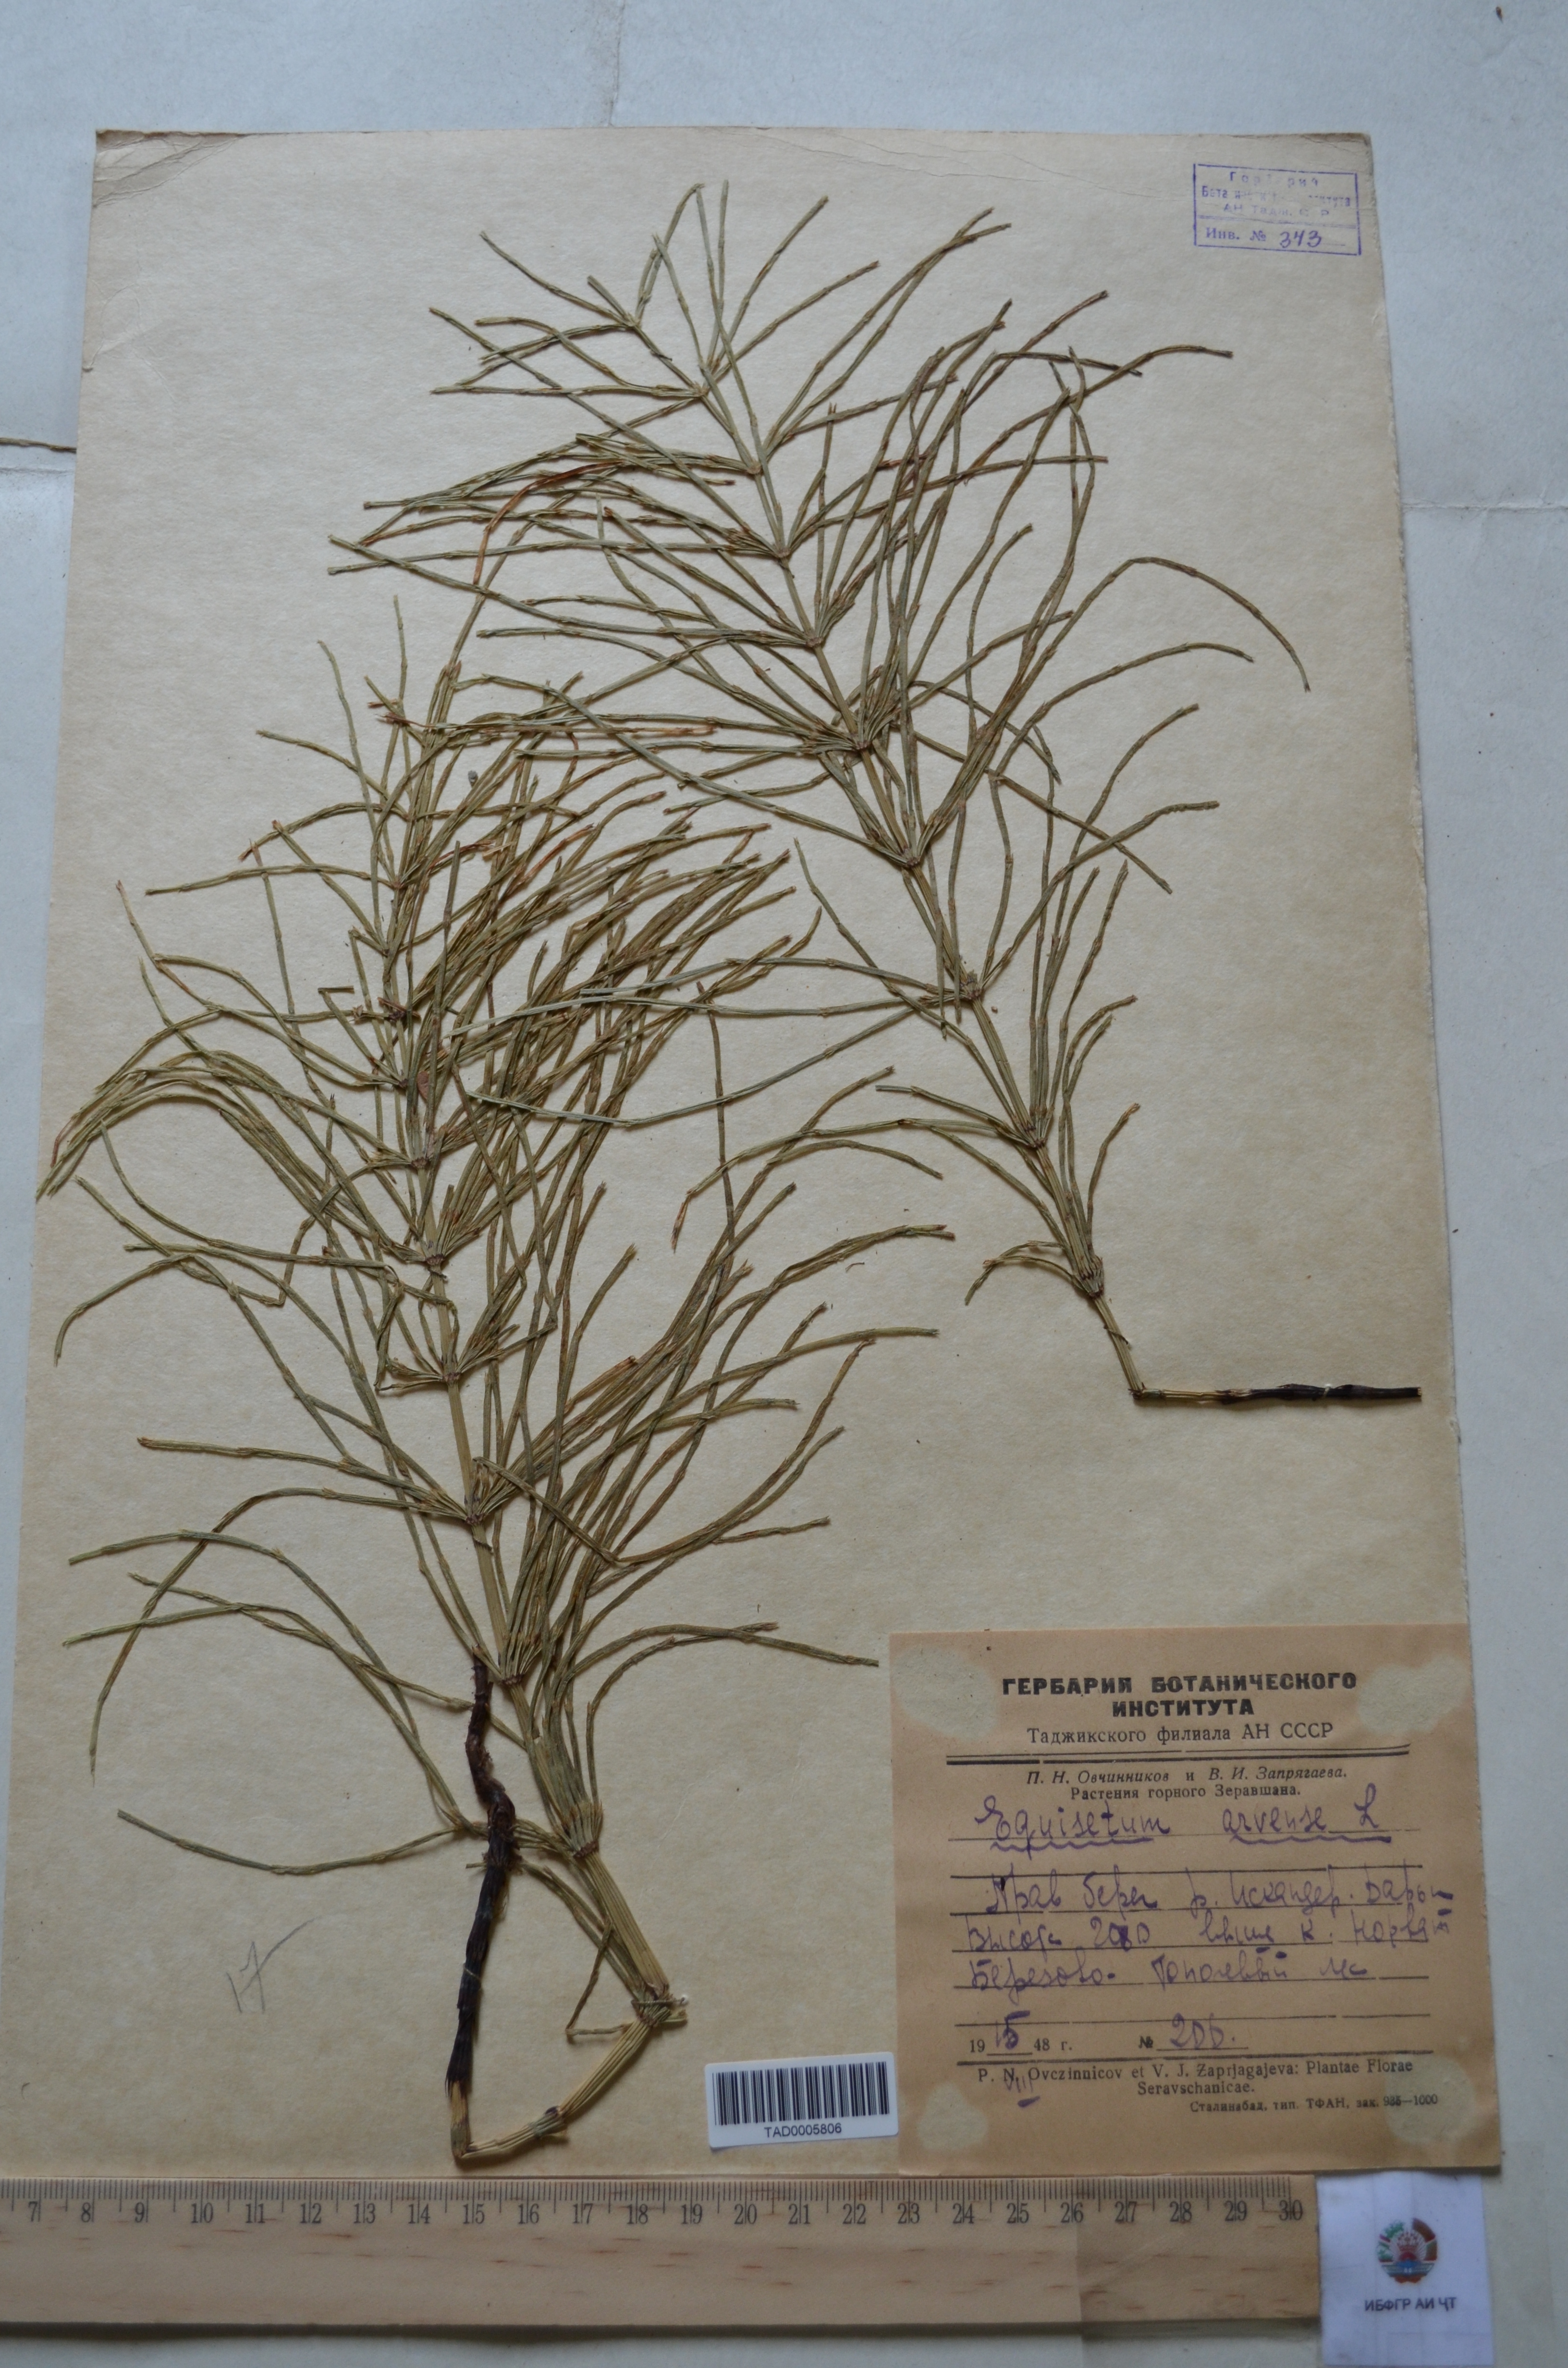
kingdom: Plantae
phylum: Tracheophyta
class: Polypodiopsida
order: Equisetales
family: Equisetaceae
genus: Equisetum
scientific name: Equisetum arvense
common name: Field horsetail
